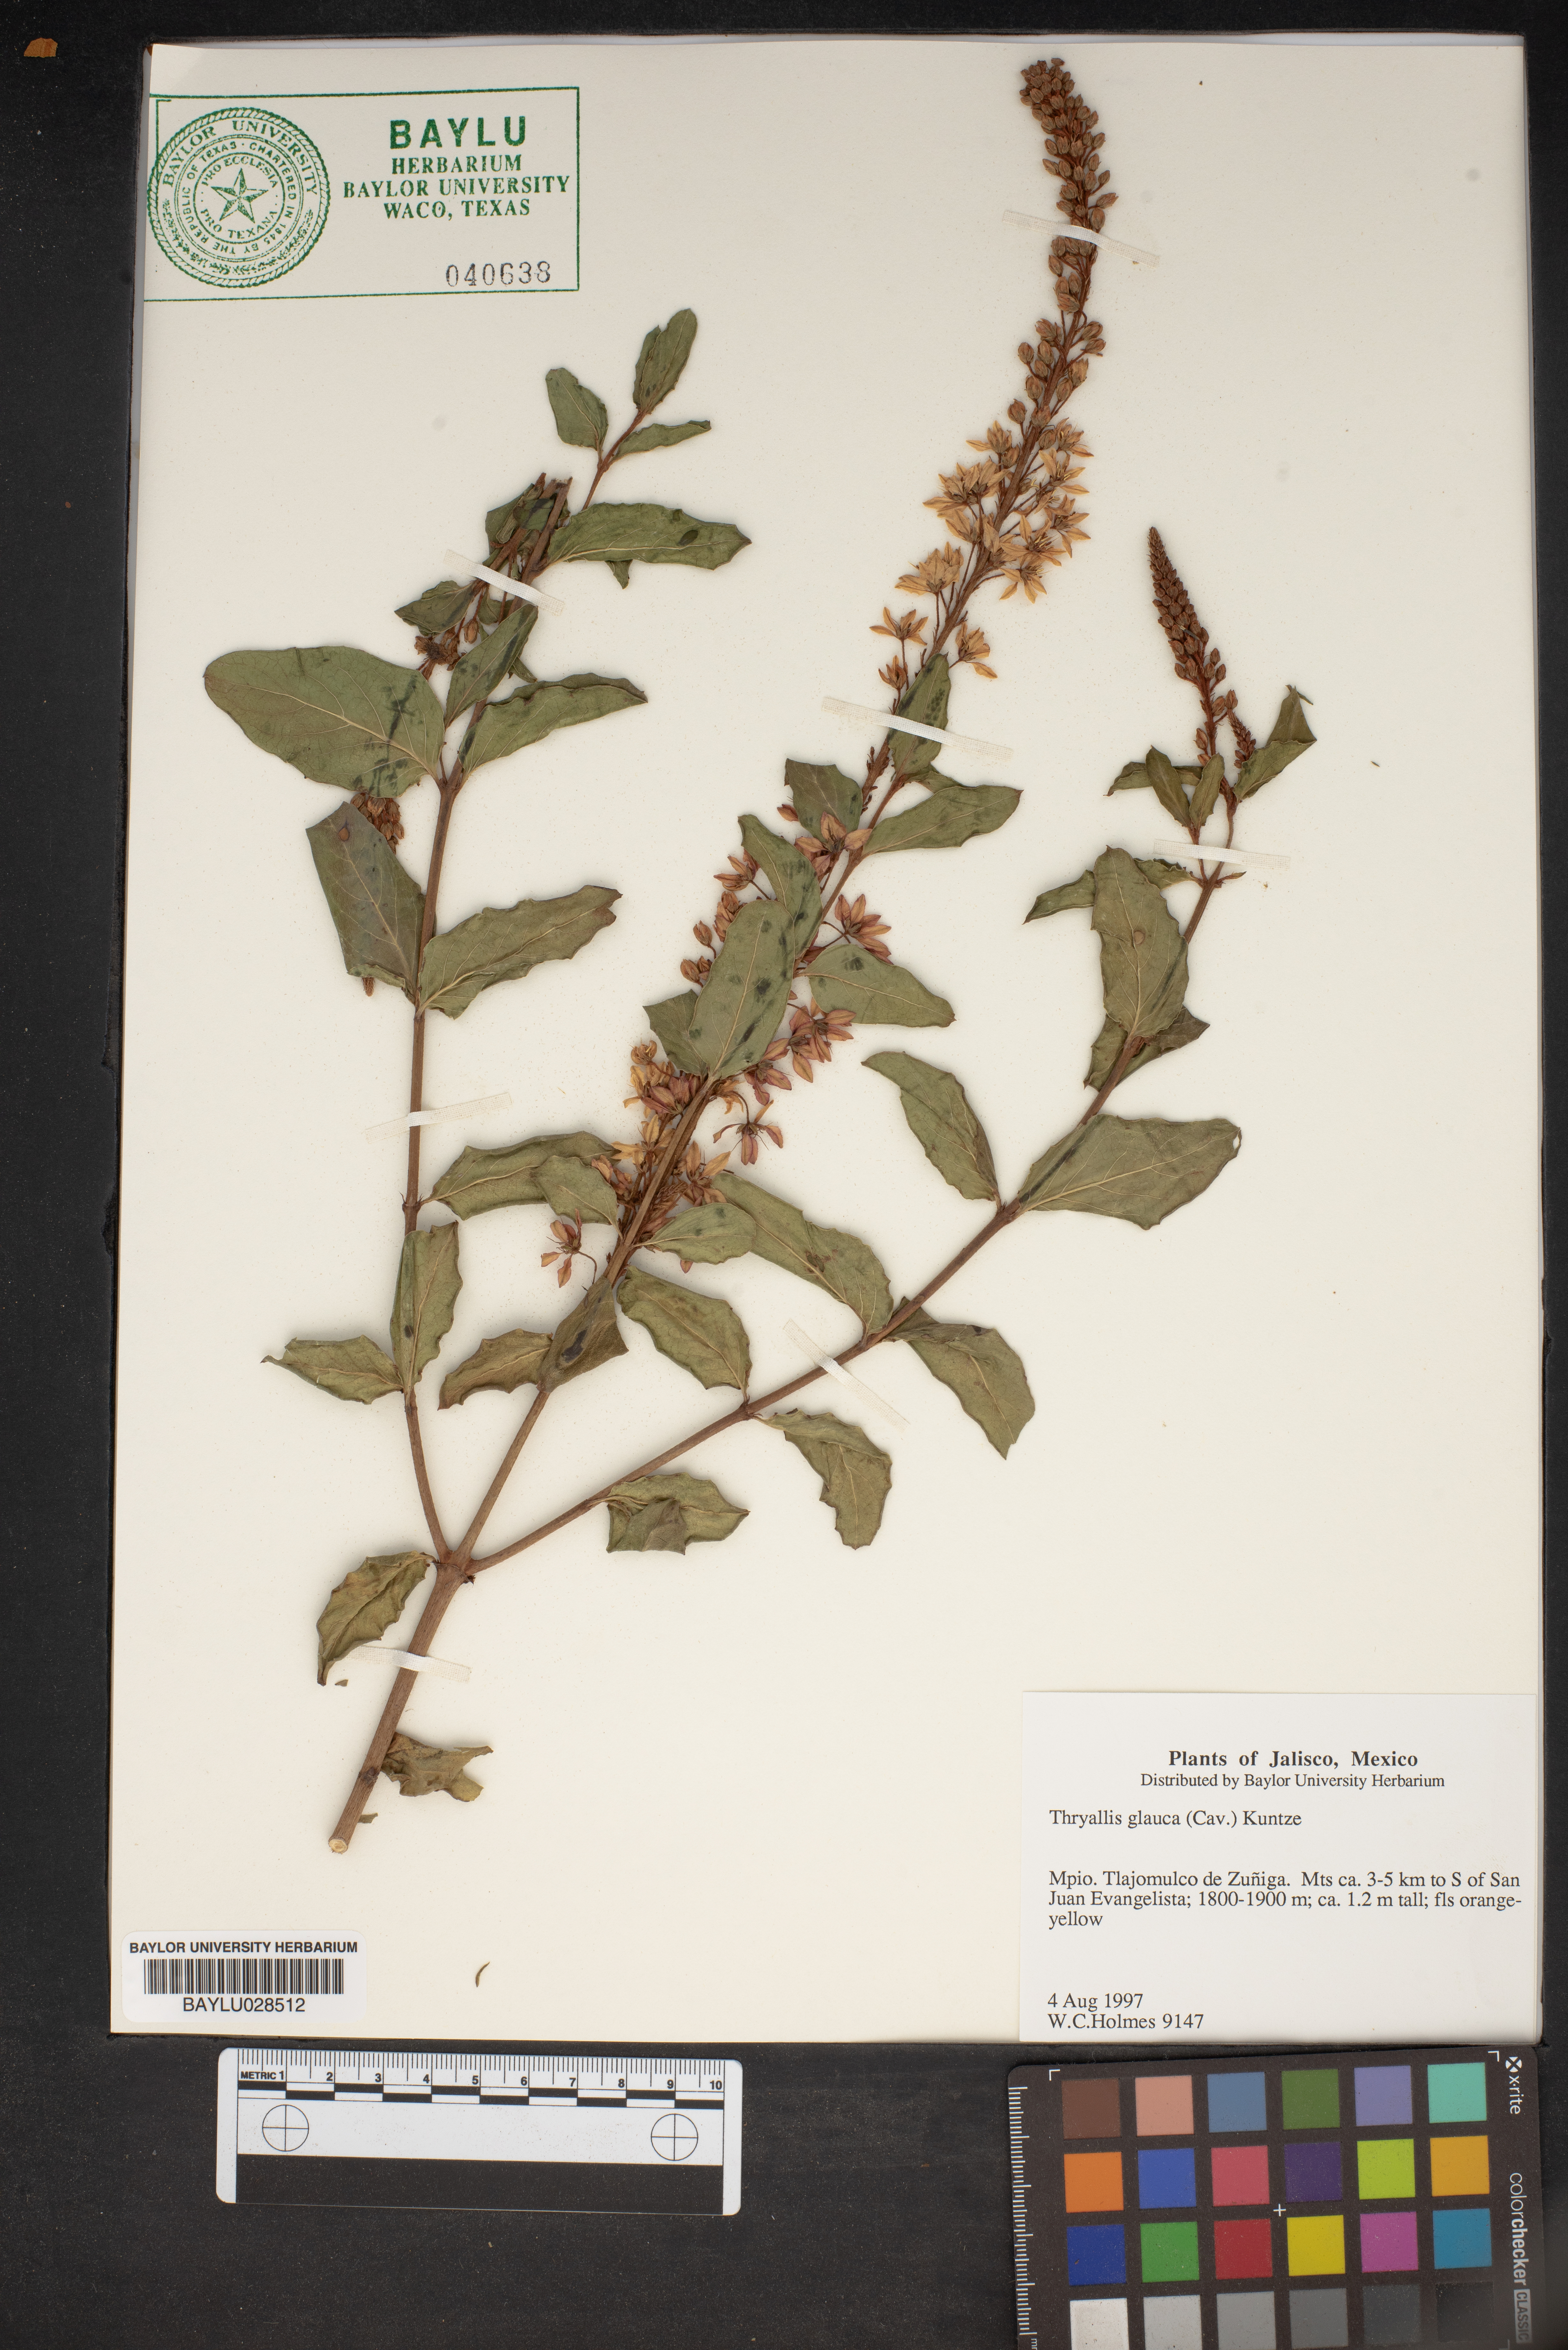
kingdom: Plantae
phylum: Tracheophyta
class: Magnoliopsida
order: Malpighiales
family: Malpighiaceae
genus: Galphimia
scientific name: Galphimia glauca
